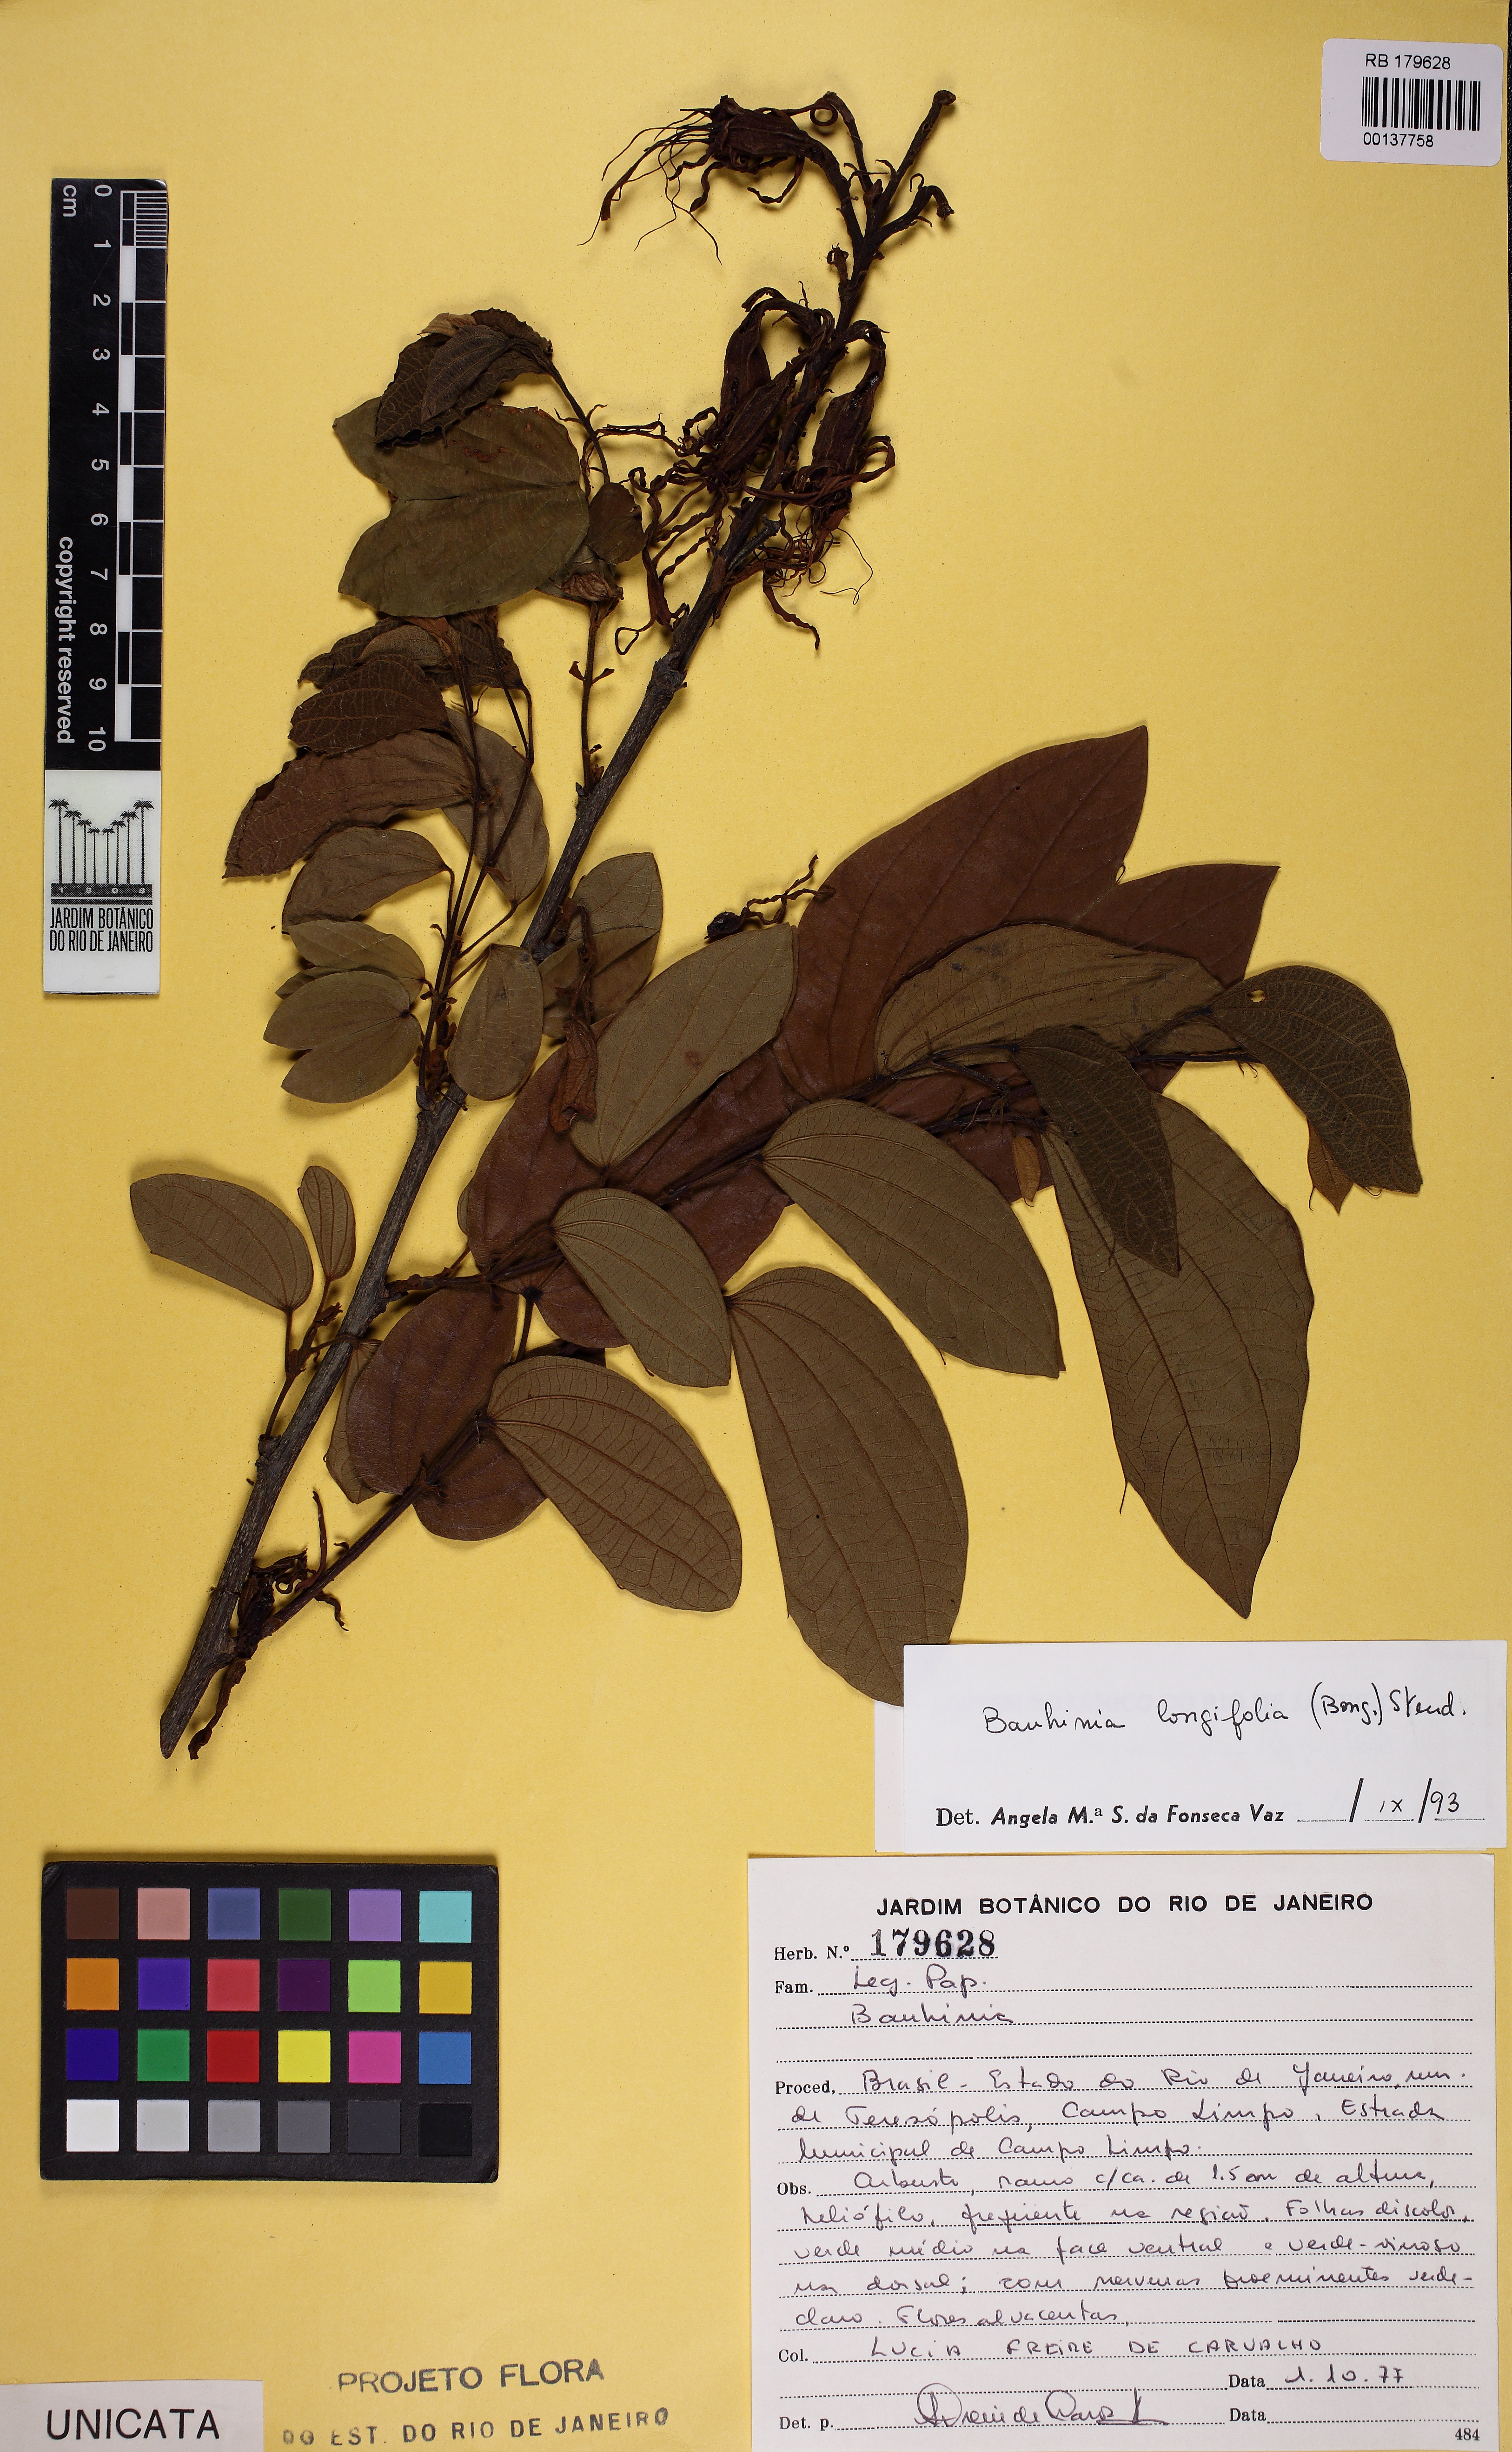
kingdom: Plantae
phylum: Tracheophyta
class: Magnoliopsida
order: Fabales
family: Fabaceae
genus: Bauhinia
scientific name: Bauhinia longifolia
